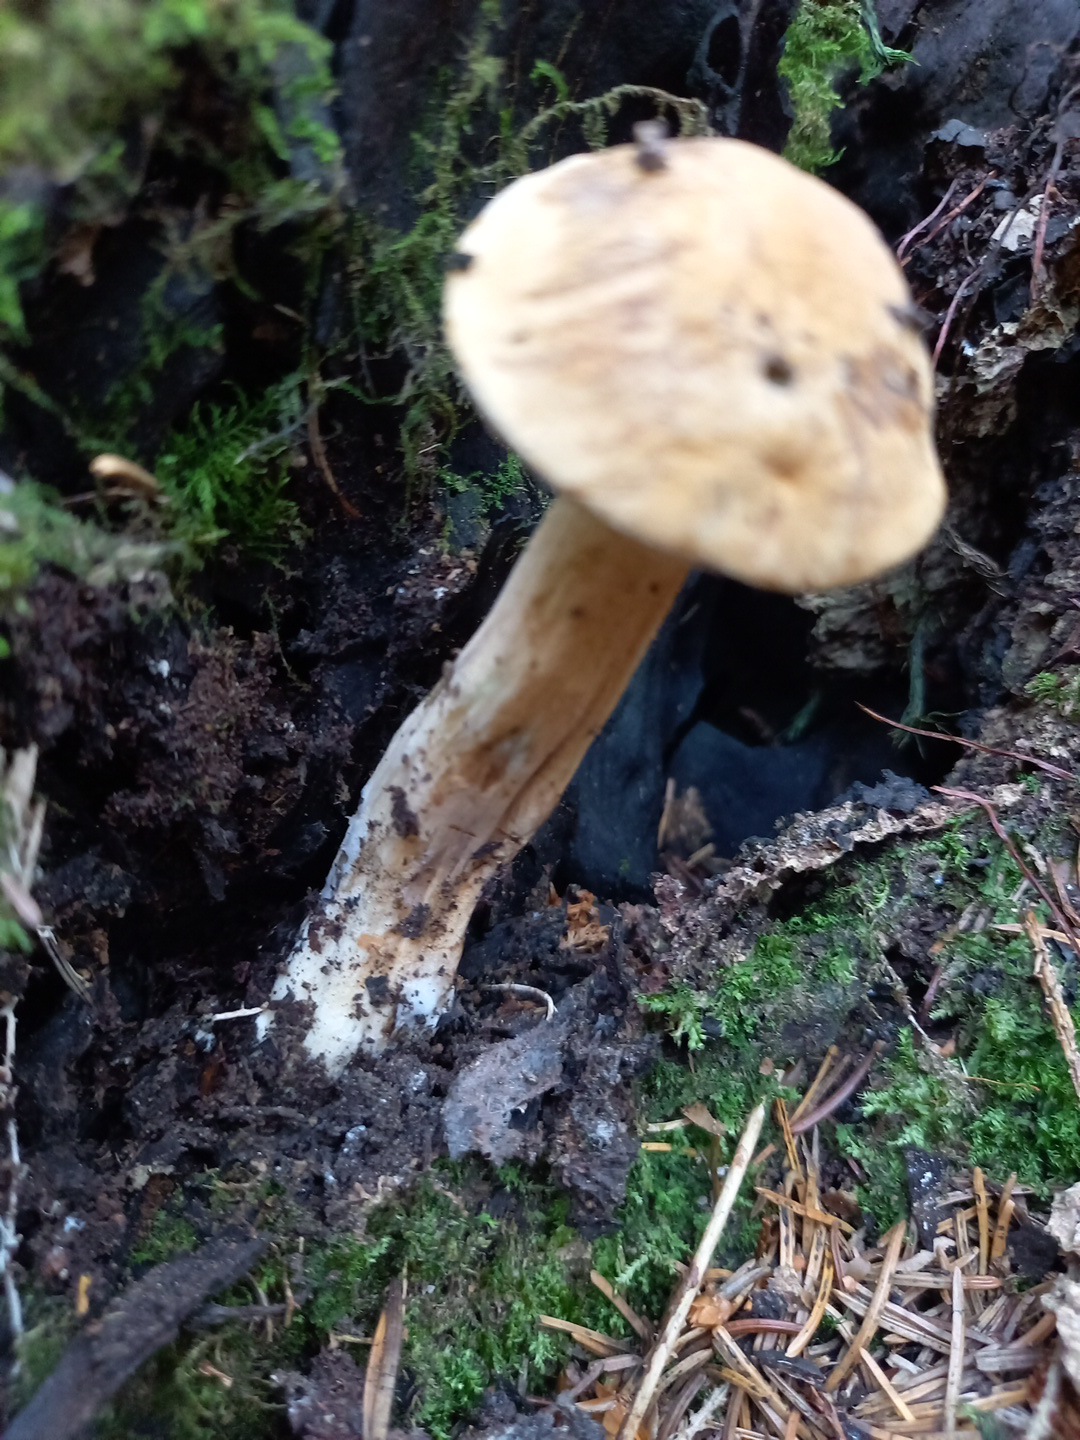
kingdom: Fungi
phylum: Basidiomycota
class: Agaricomycetes
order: Boletales
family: Boletaceae
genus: Tylopilus
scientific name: Tylopilus felleus
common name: galderørhat
